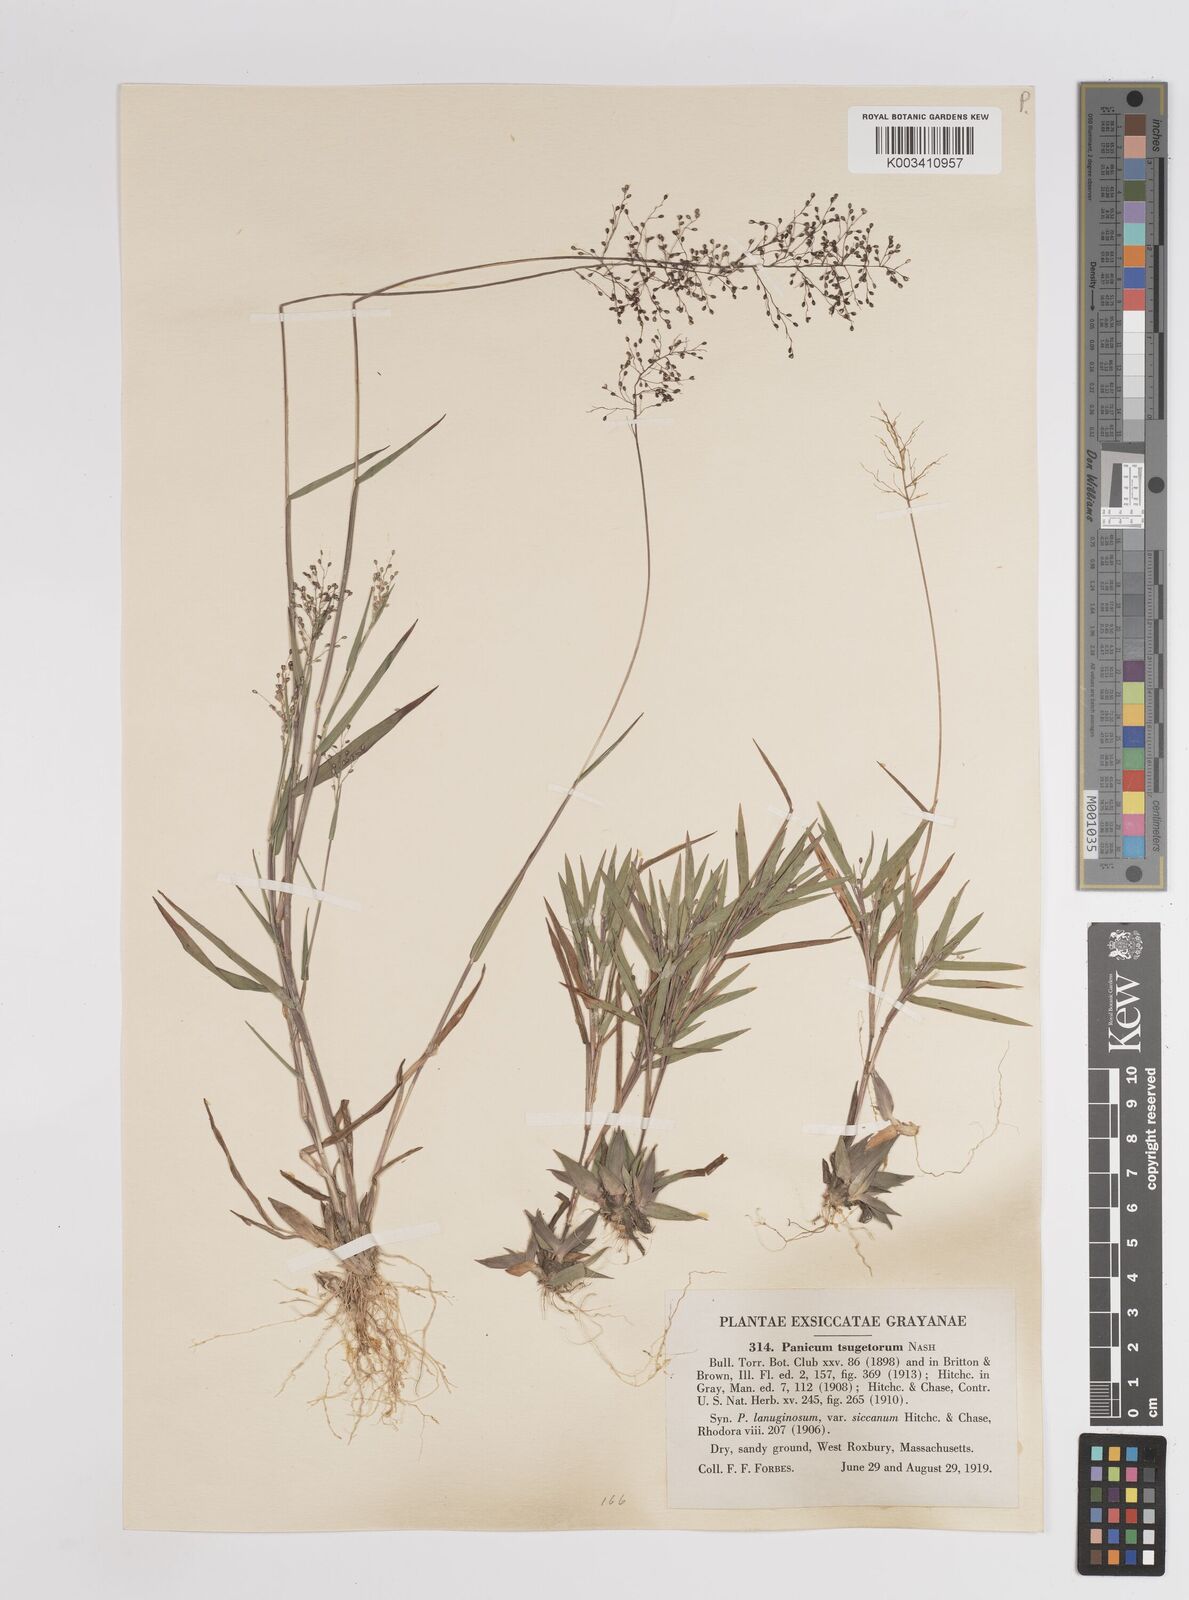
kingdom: Plantae
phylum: Tracheophyta
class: Liliopsida
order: Poales
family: Poaceae
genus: Dichanthelium
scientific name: Dichanthelium columbianum
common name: Hemlock panic grass
